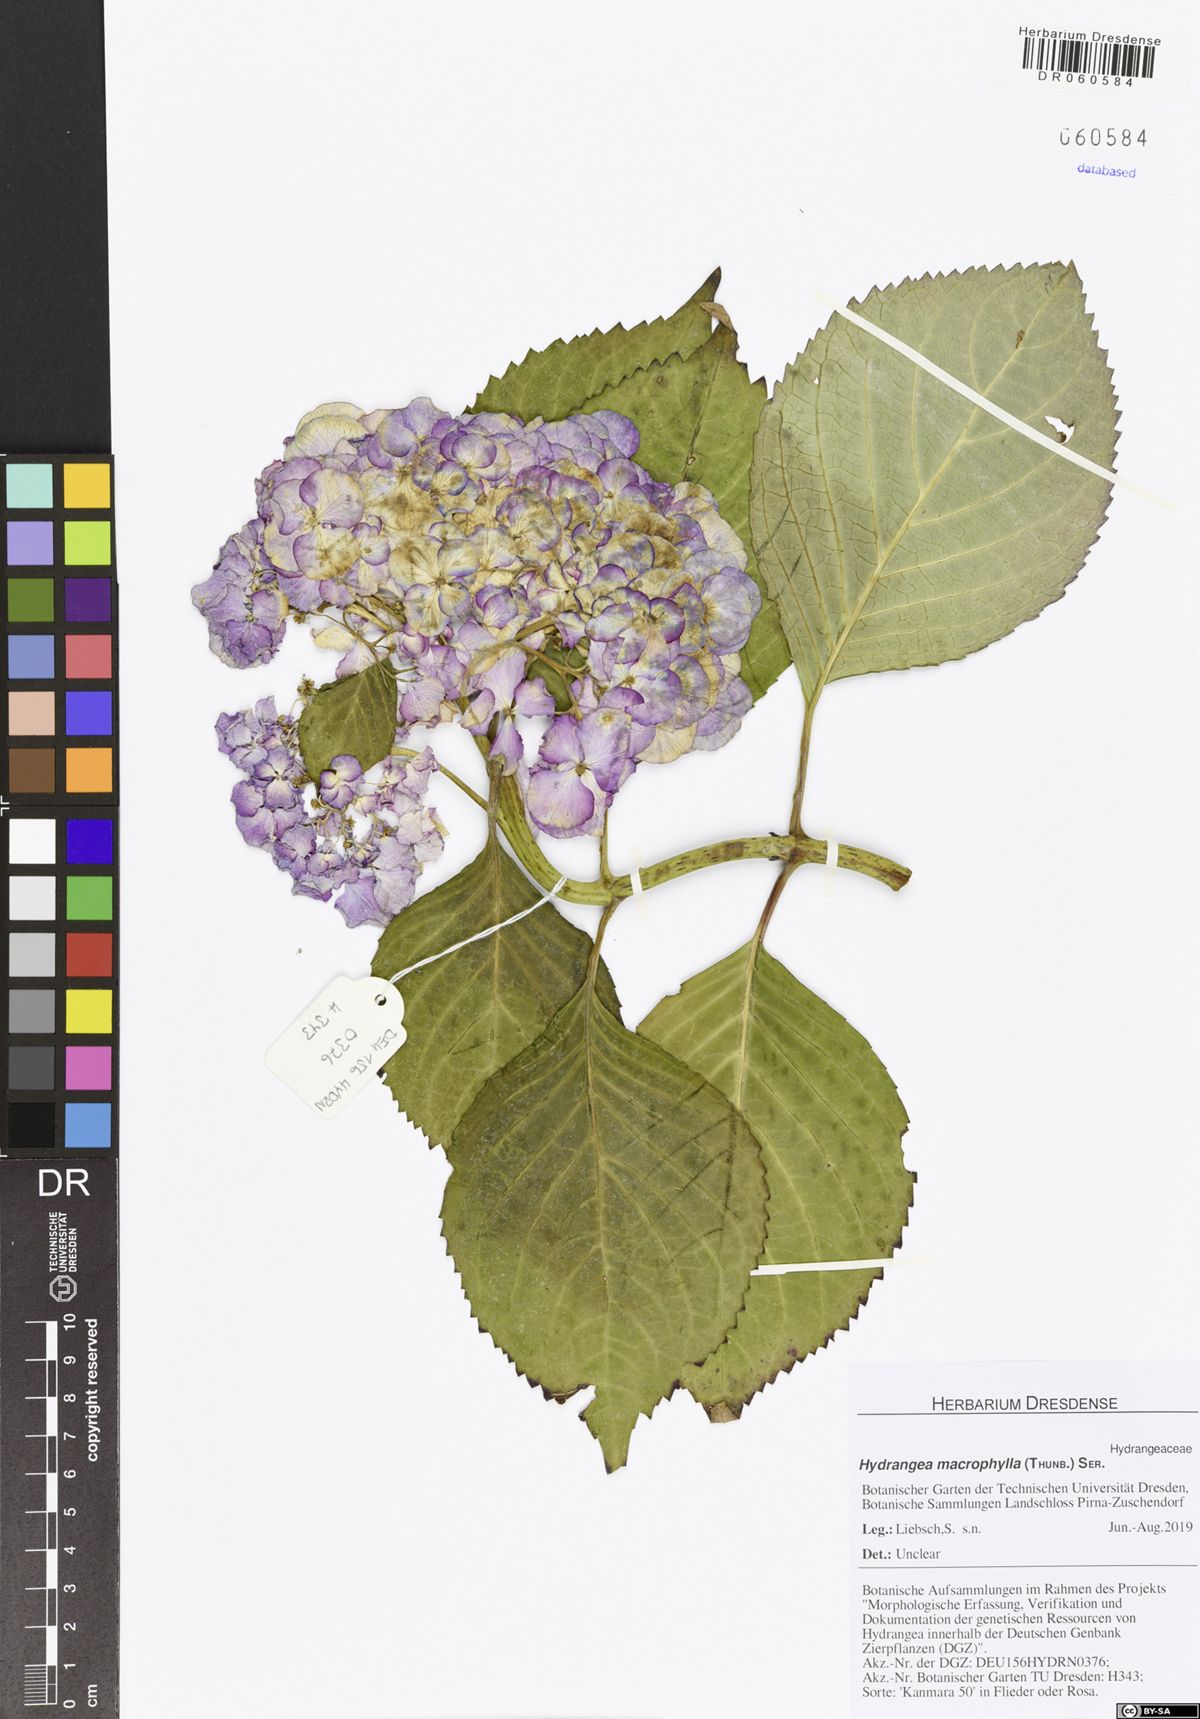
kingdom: Plantae
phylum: Tracheophyta
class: Magnoliopsida
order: Cornales
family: Hydrangeaceae
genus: Hydrangea
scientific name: Hydrangea macrophylla
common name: Hydrangea
